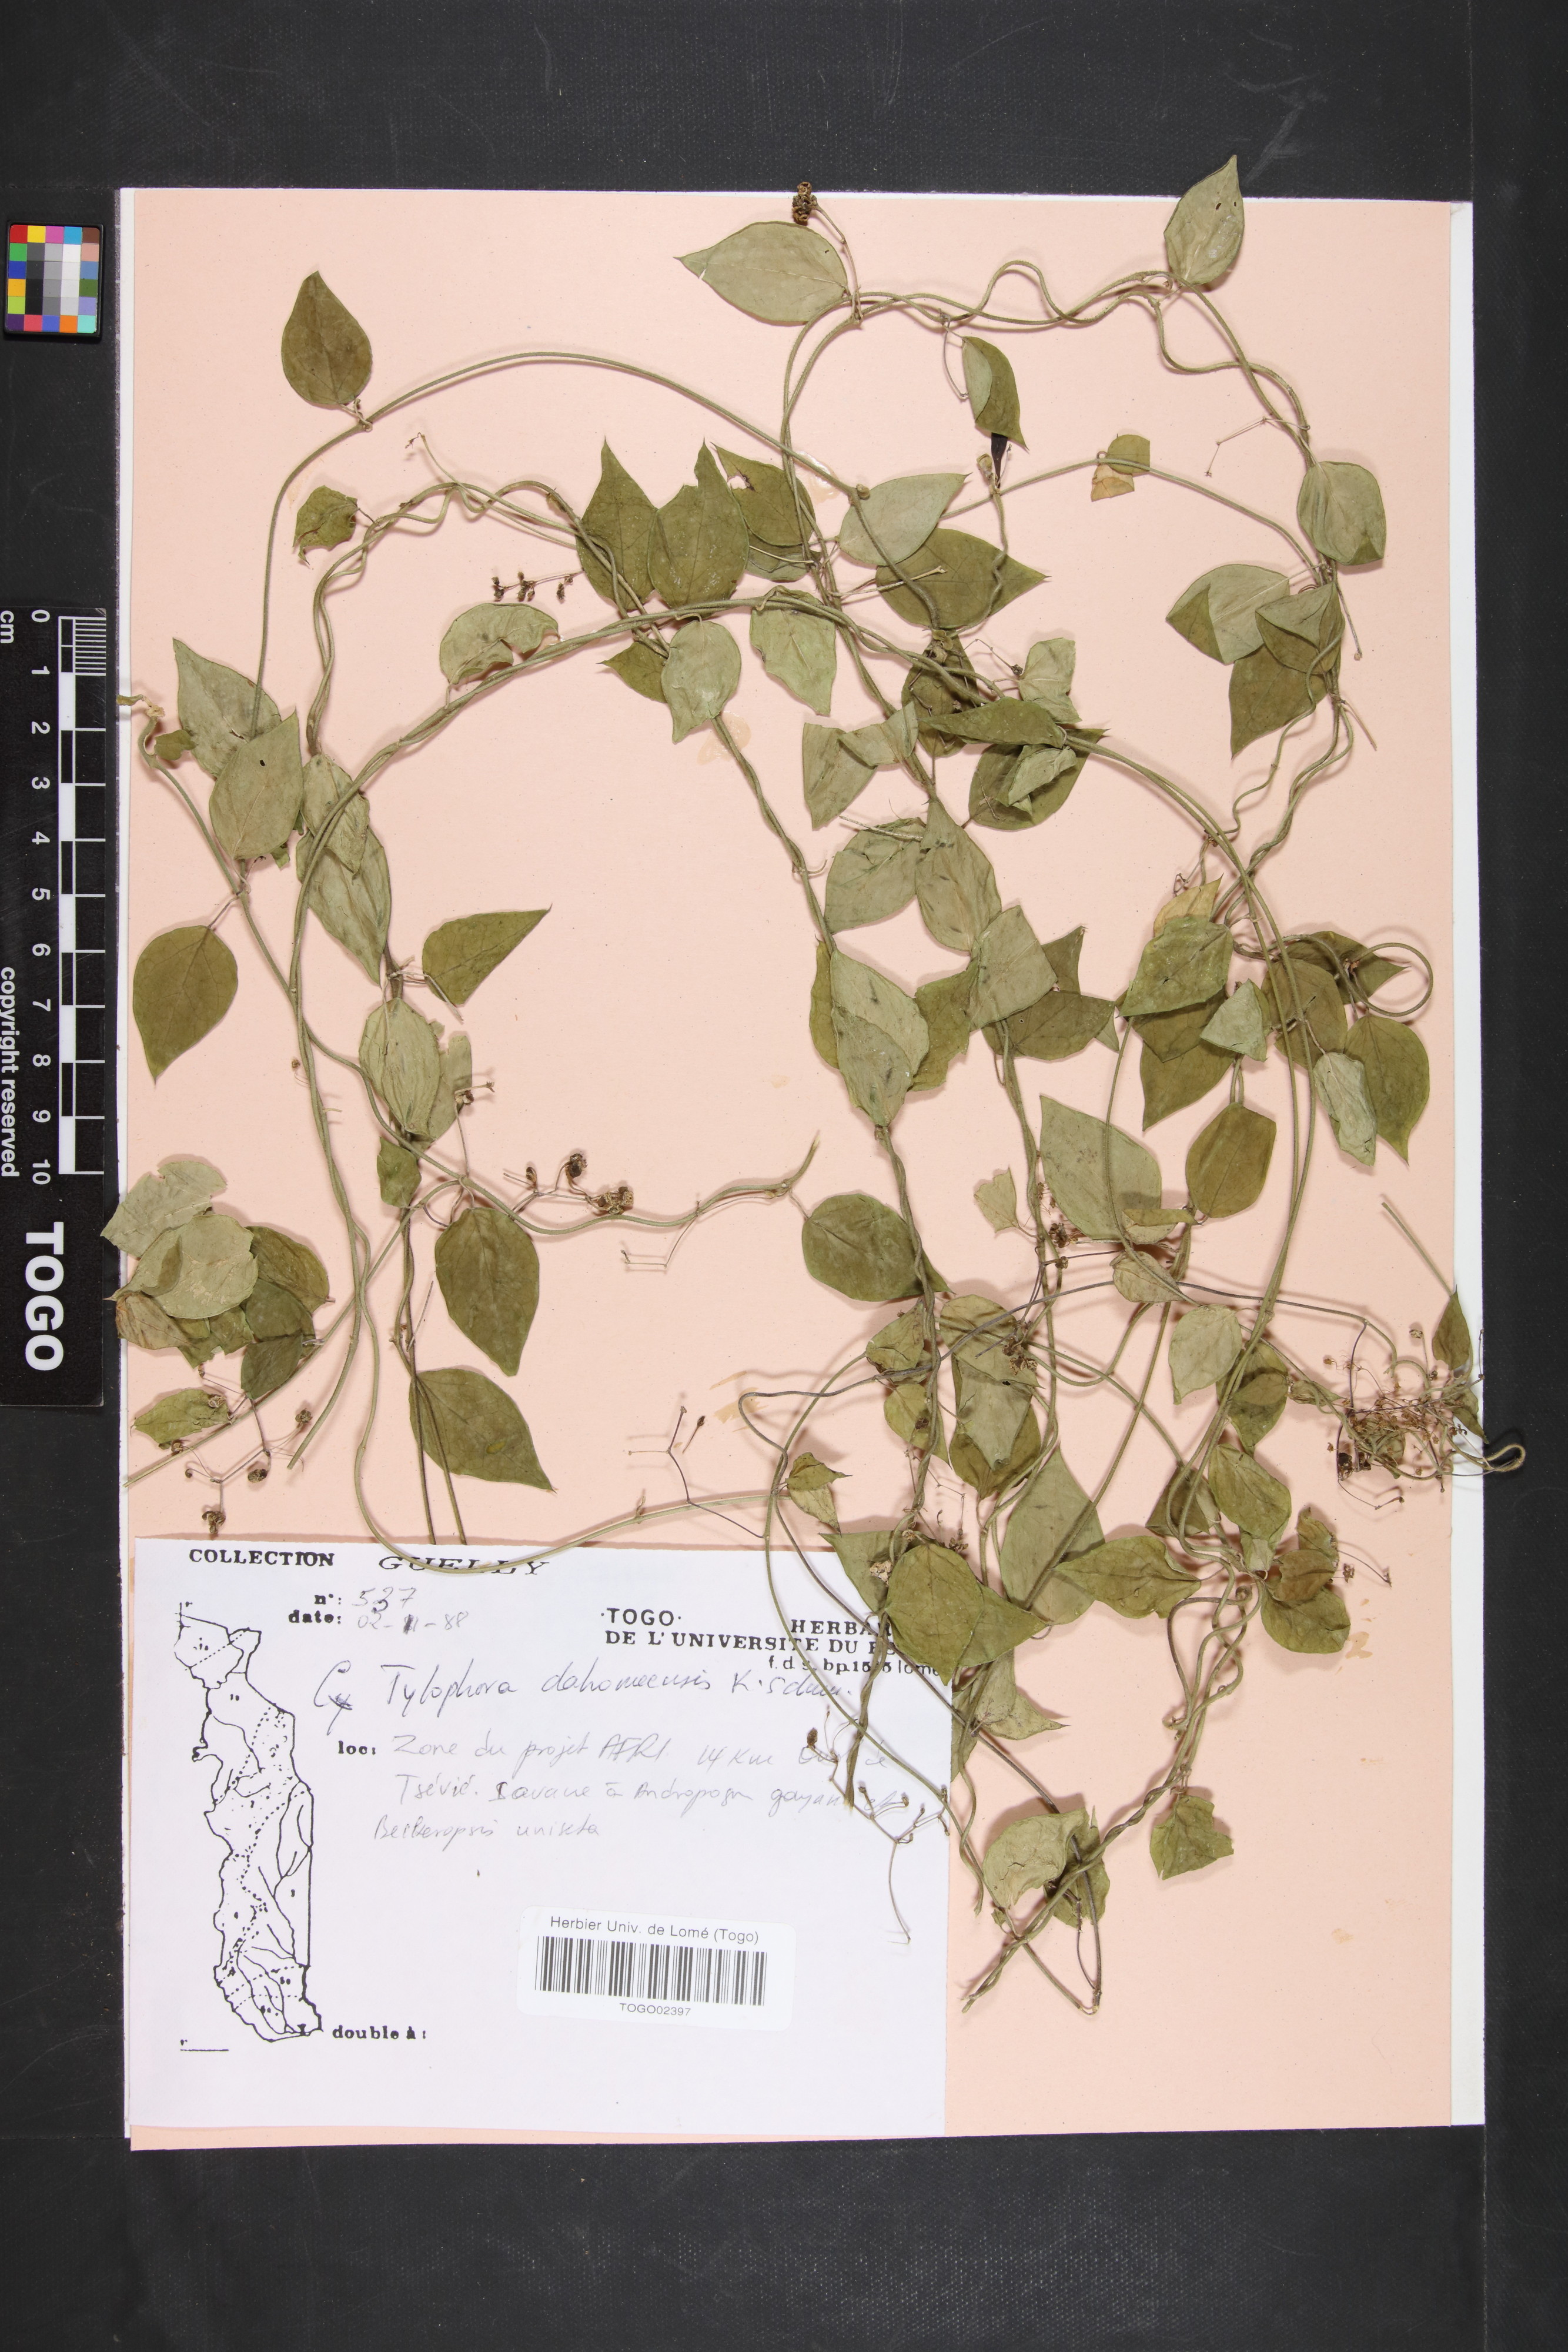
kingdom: Plantae
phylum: Tracheophyta
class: Magnoliopsida
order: Gentianales
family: Apocynaceae
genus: Vincetoxicum
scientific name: Vincetoxicum dahomense
